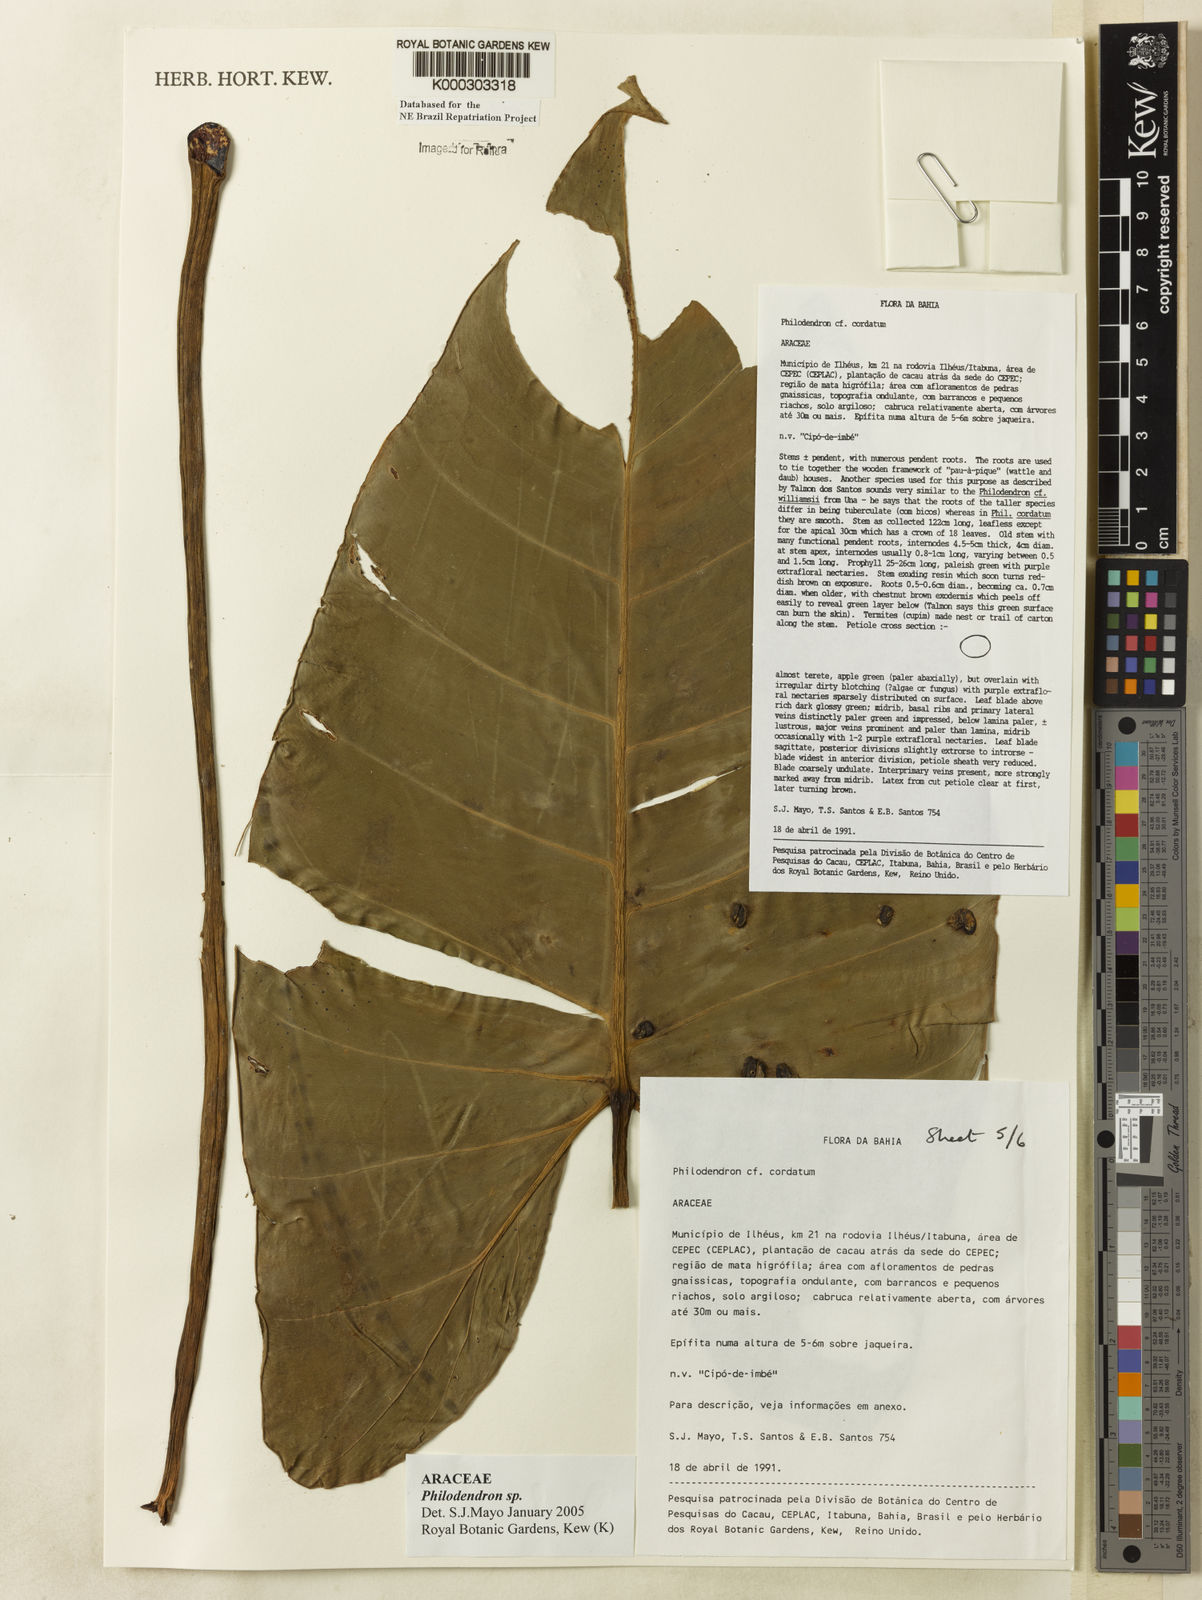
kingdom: Plantae
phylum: Tracheophyta
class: Liliopsida
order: Alismatales
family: Araceae
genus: Philodendron
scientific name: Philodendron
